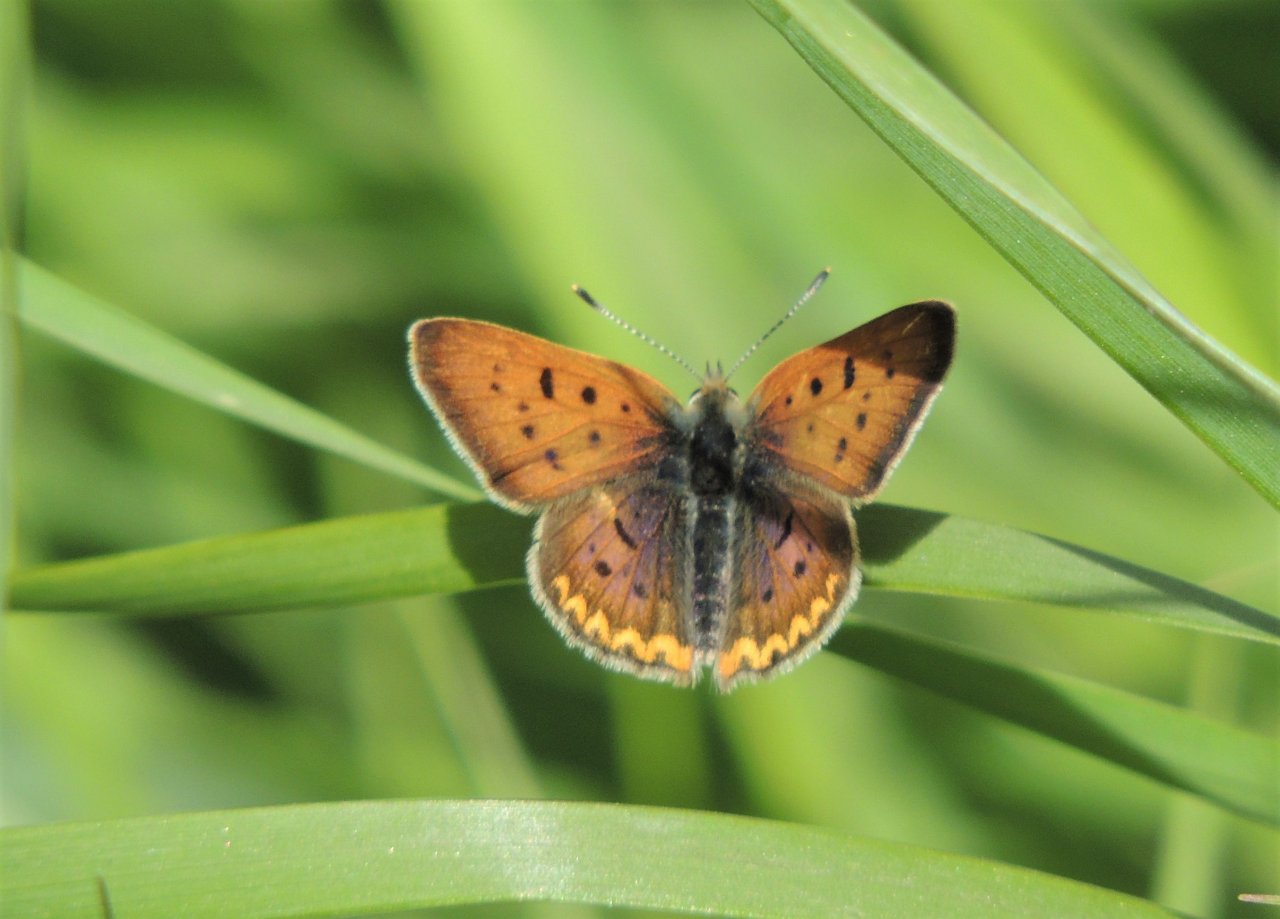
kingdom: Animalia
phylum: Arthropoda
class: Insecta
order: Lepidoptera
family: Sesiidae
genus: Sesia
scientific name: Sesia Lycaena helloides
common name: Purplish Copper
